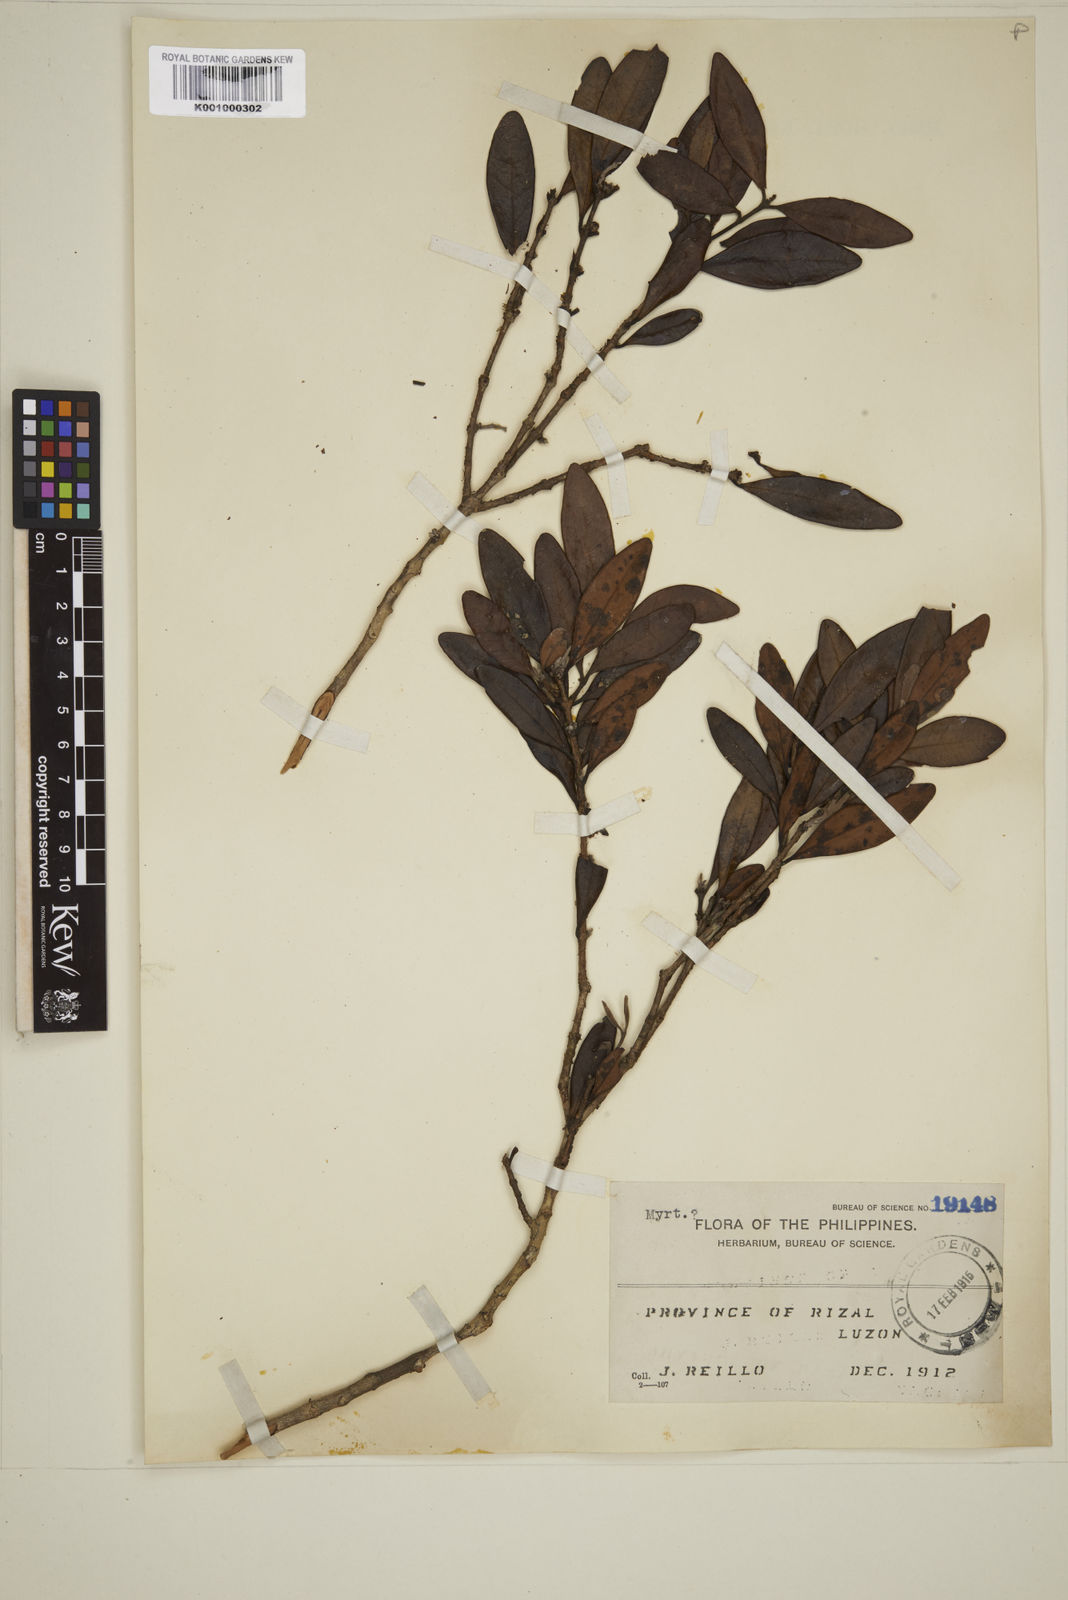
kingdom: Plantae
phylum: Tracheophyta
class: Magnoliopsida
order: Myrtales
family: Myrtaceae
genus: Eugenia
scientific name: Eugenia sargentii
